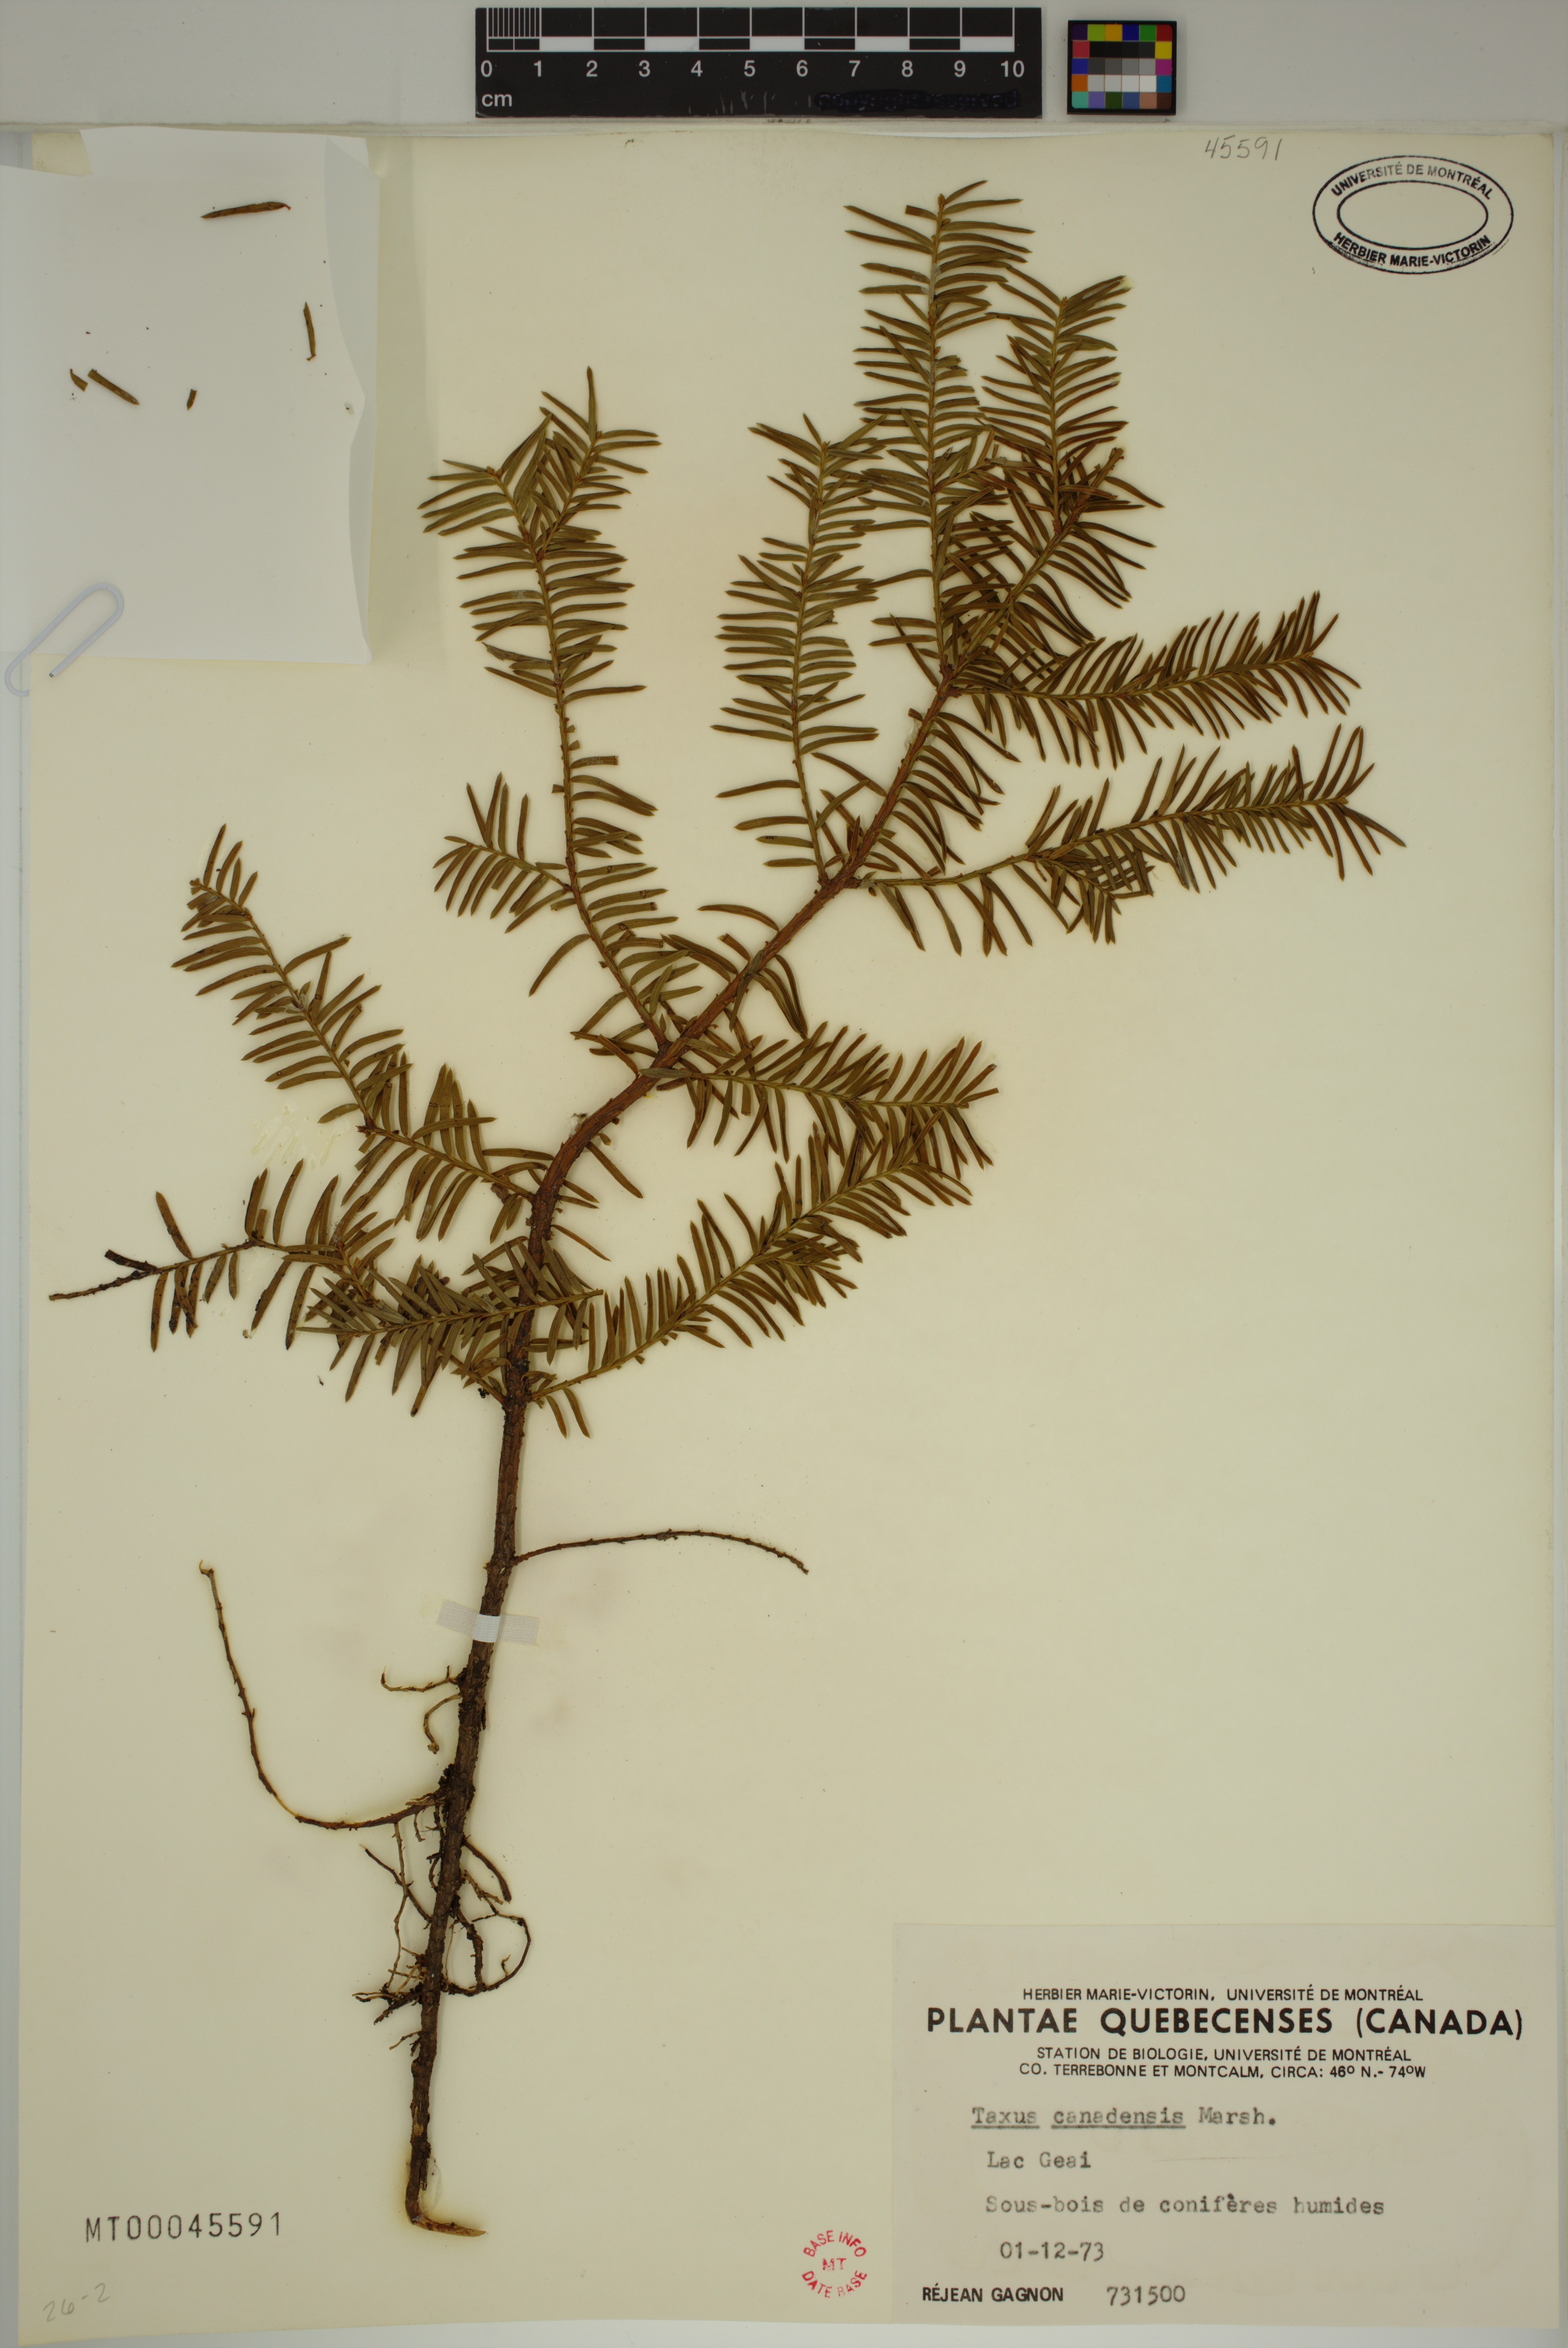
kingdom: Plantae
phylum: Tracheophyta
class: Pinopsida
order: Pinales
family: Taxaceae
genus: Taxus
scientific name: Taxus canadensis
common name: American yew
